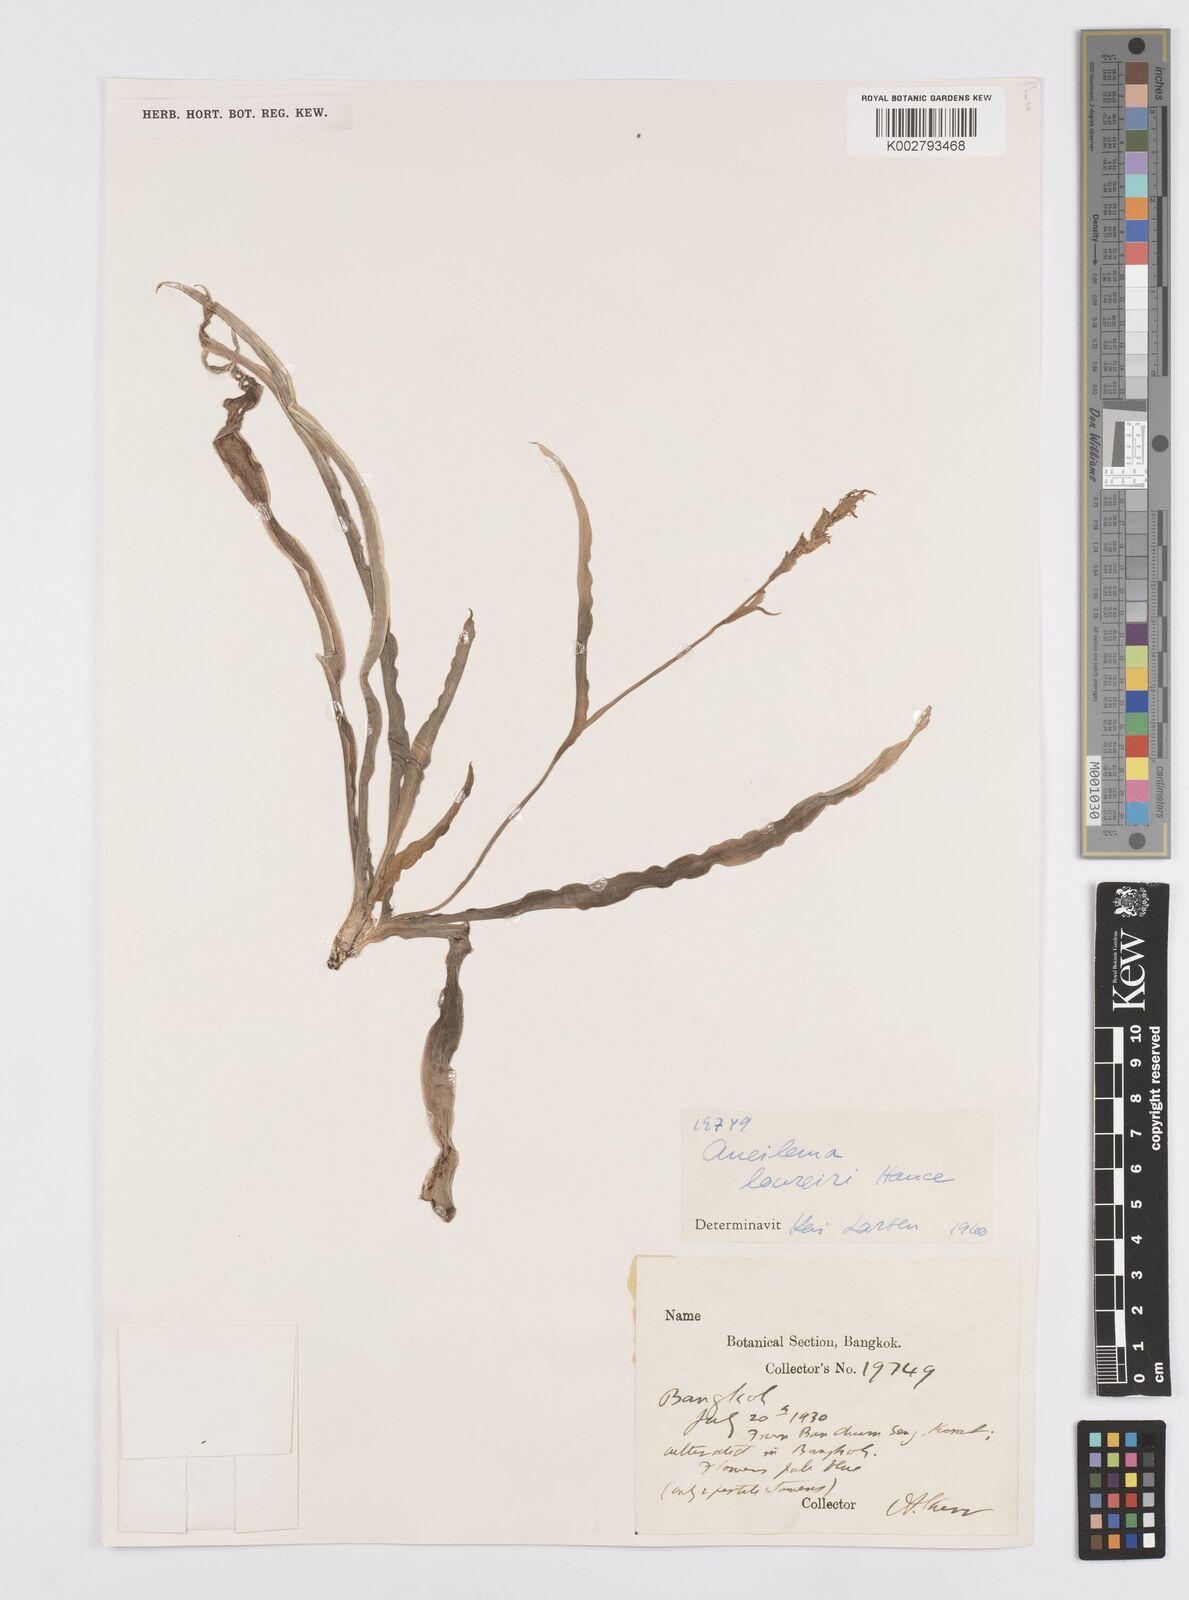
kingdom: Plantae
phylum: Tracheophyta
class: Liliopsida
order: Commelinales
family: Commelinaceae
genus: Murdannia
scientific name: Murdannia edulis
